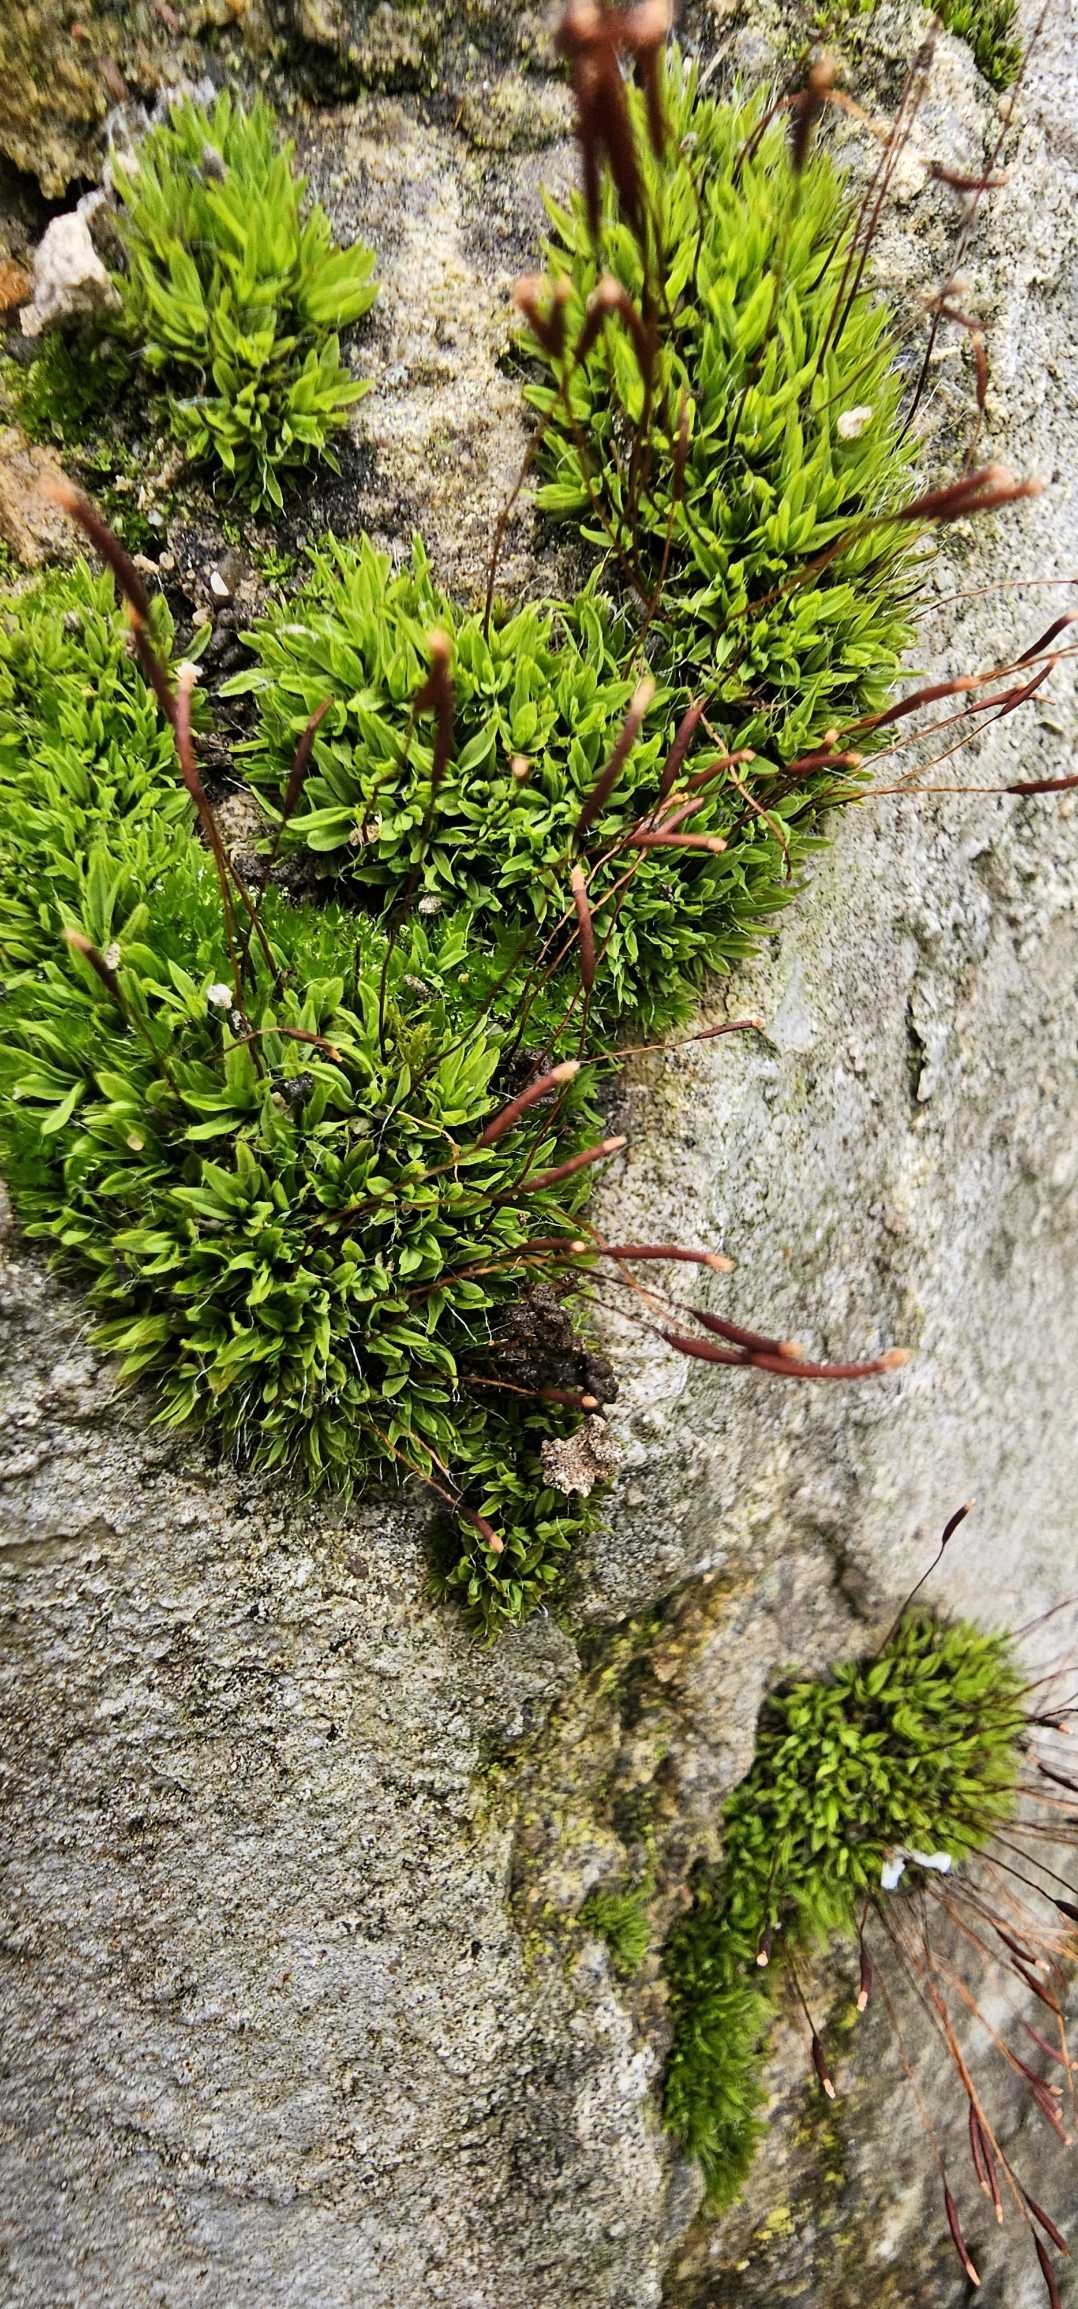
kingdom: Plantae
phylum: Bryophyta
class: Bryopsida
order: Pottiales
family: Pottiaceae
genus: Tortula
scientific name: Tortula muralis
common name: Mur-snotand
